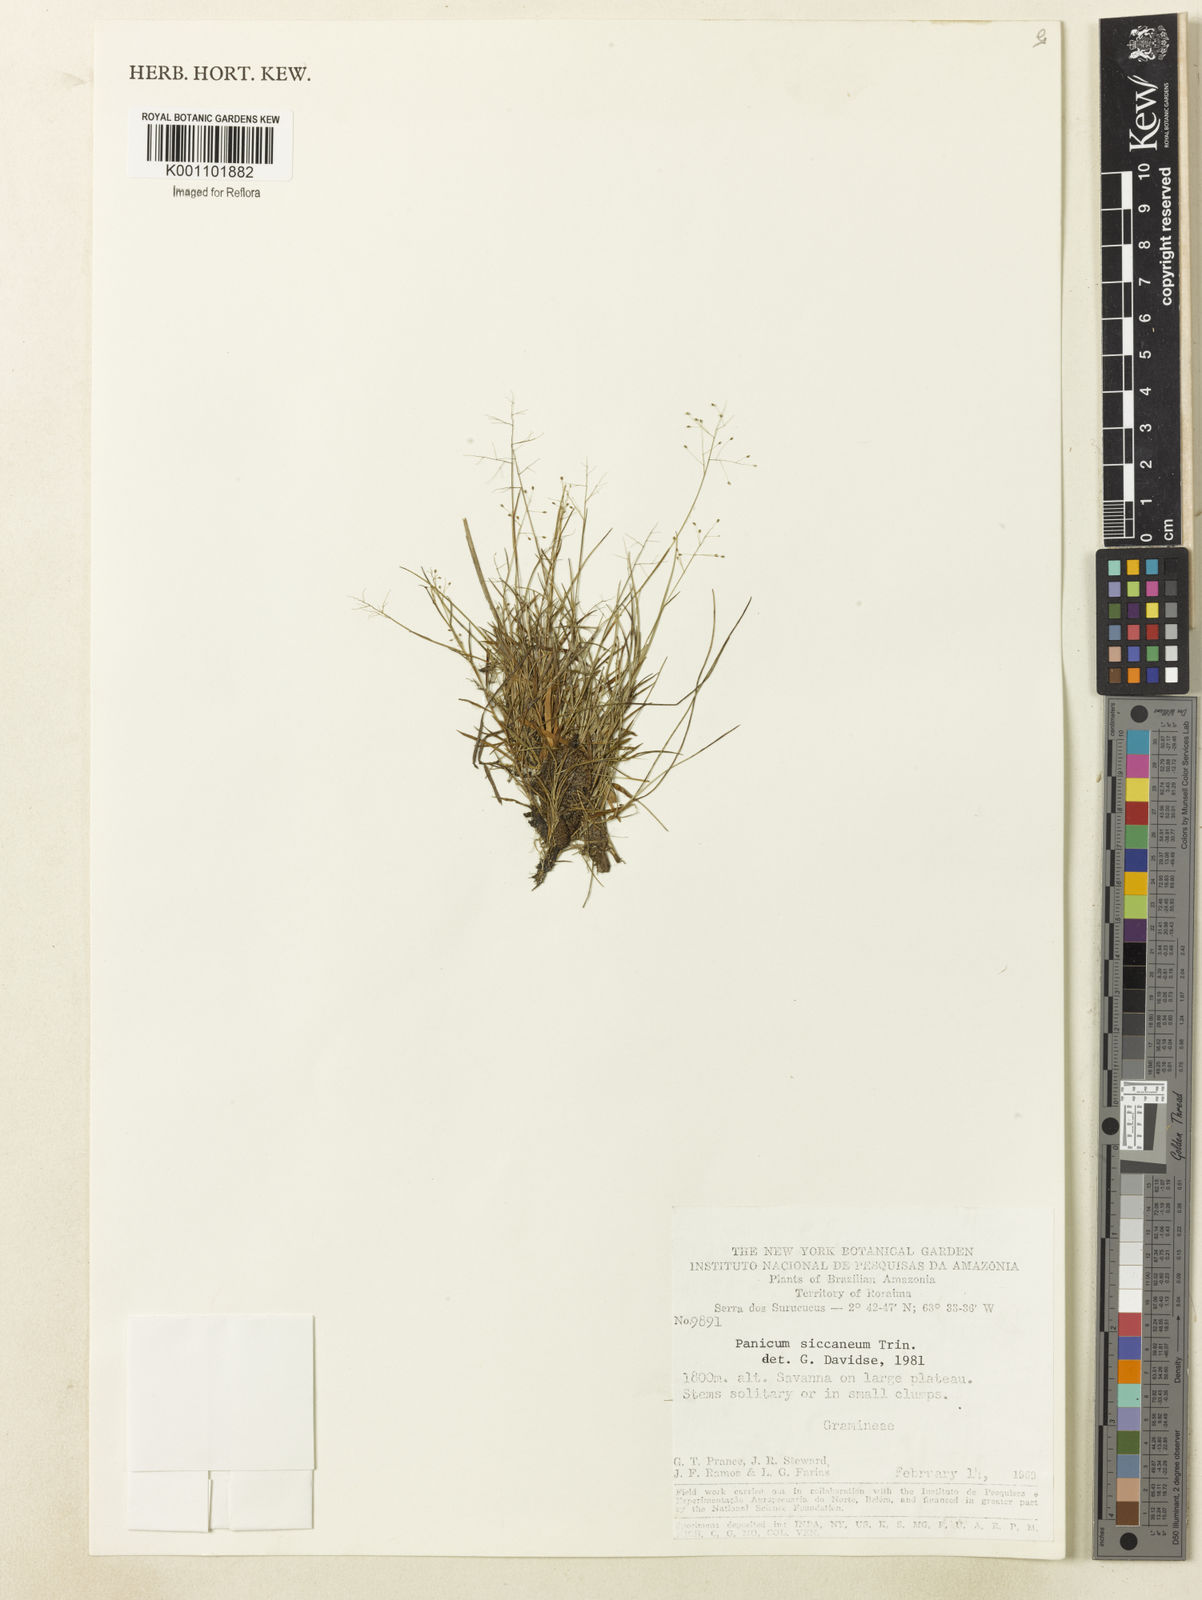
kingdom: Plantae
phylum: Tracheophyta
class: Liliopsida
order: Poales
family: Poaceae
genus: Trichanthecium
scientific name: Trichanthecium polycomum
